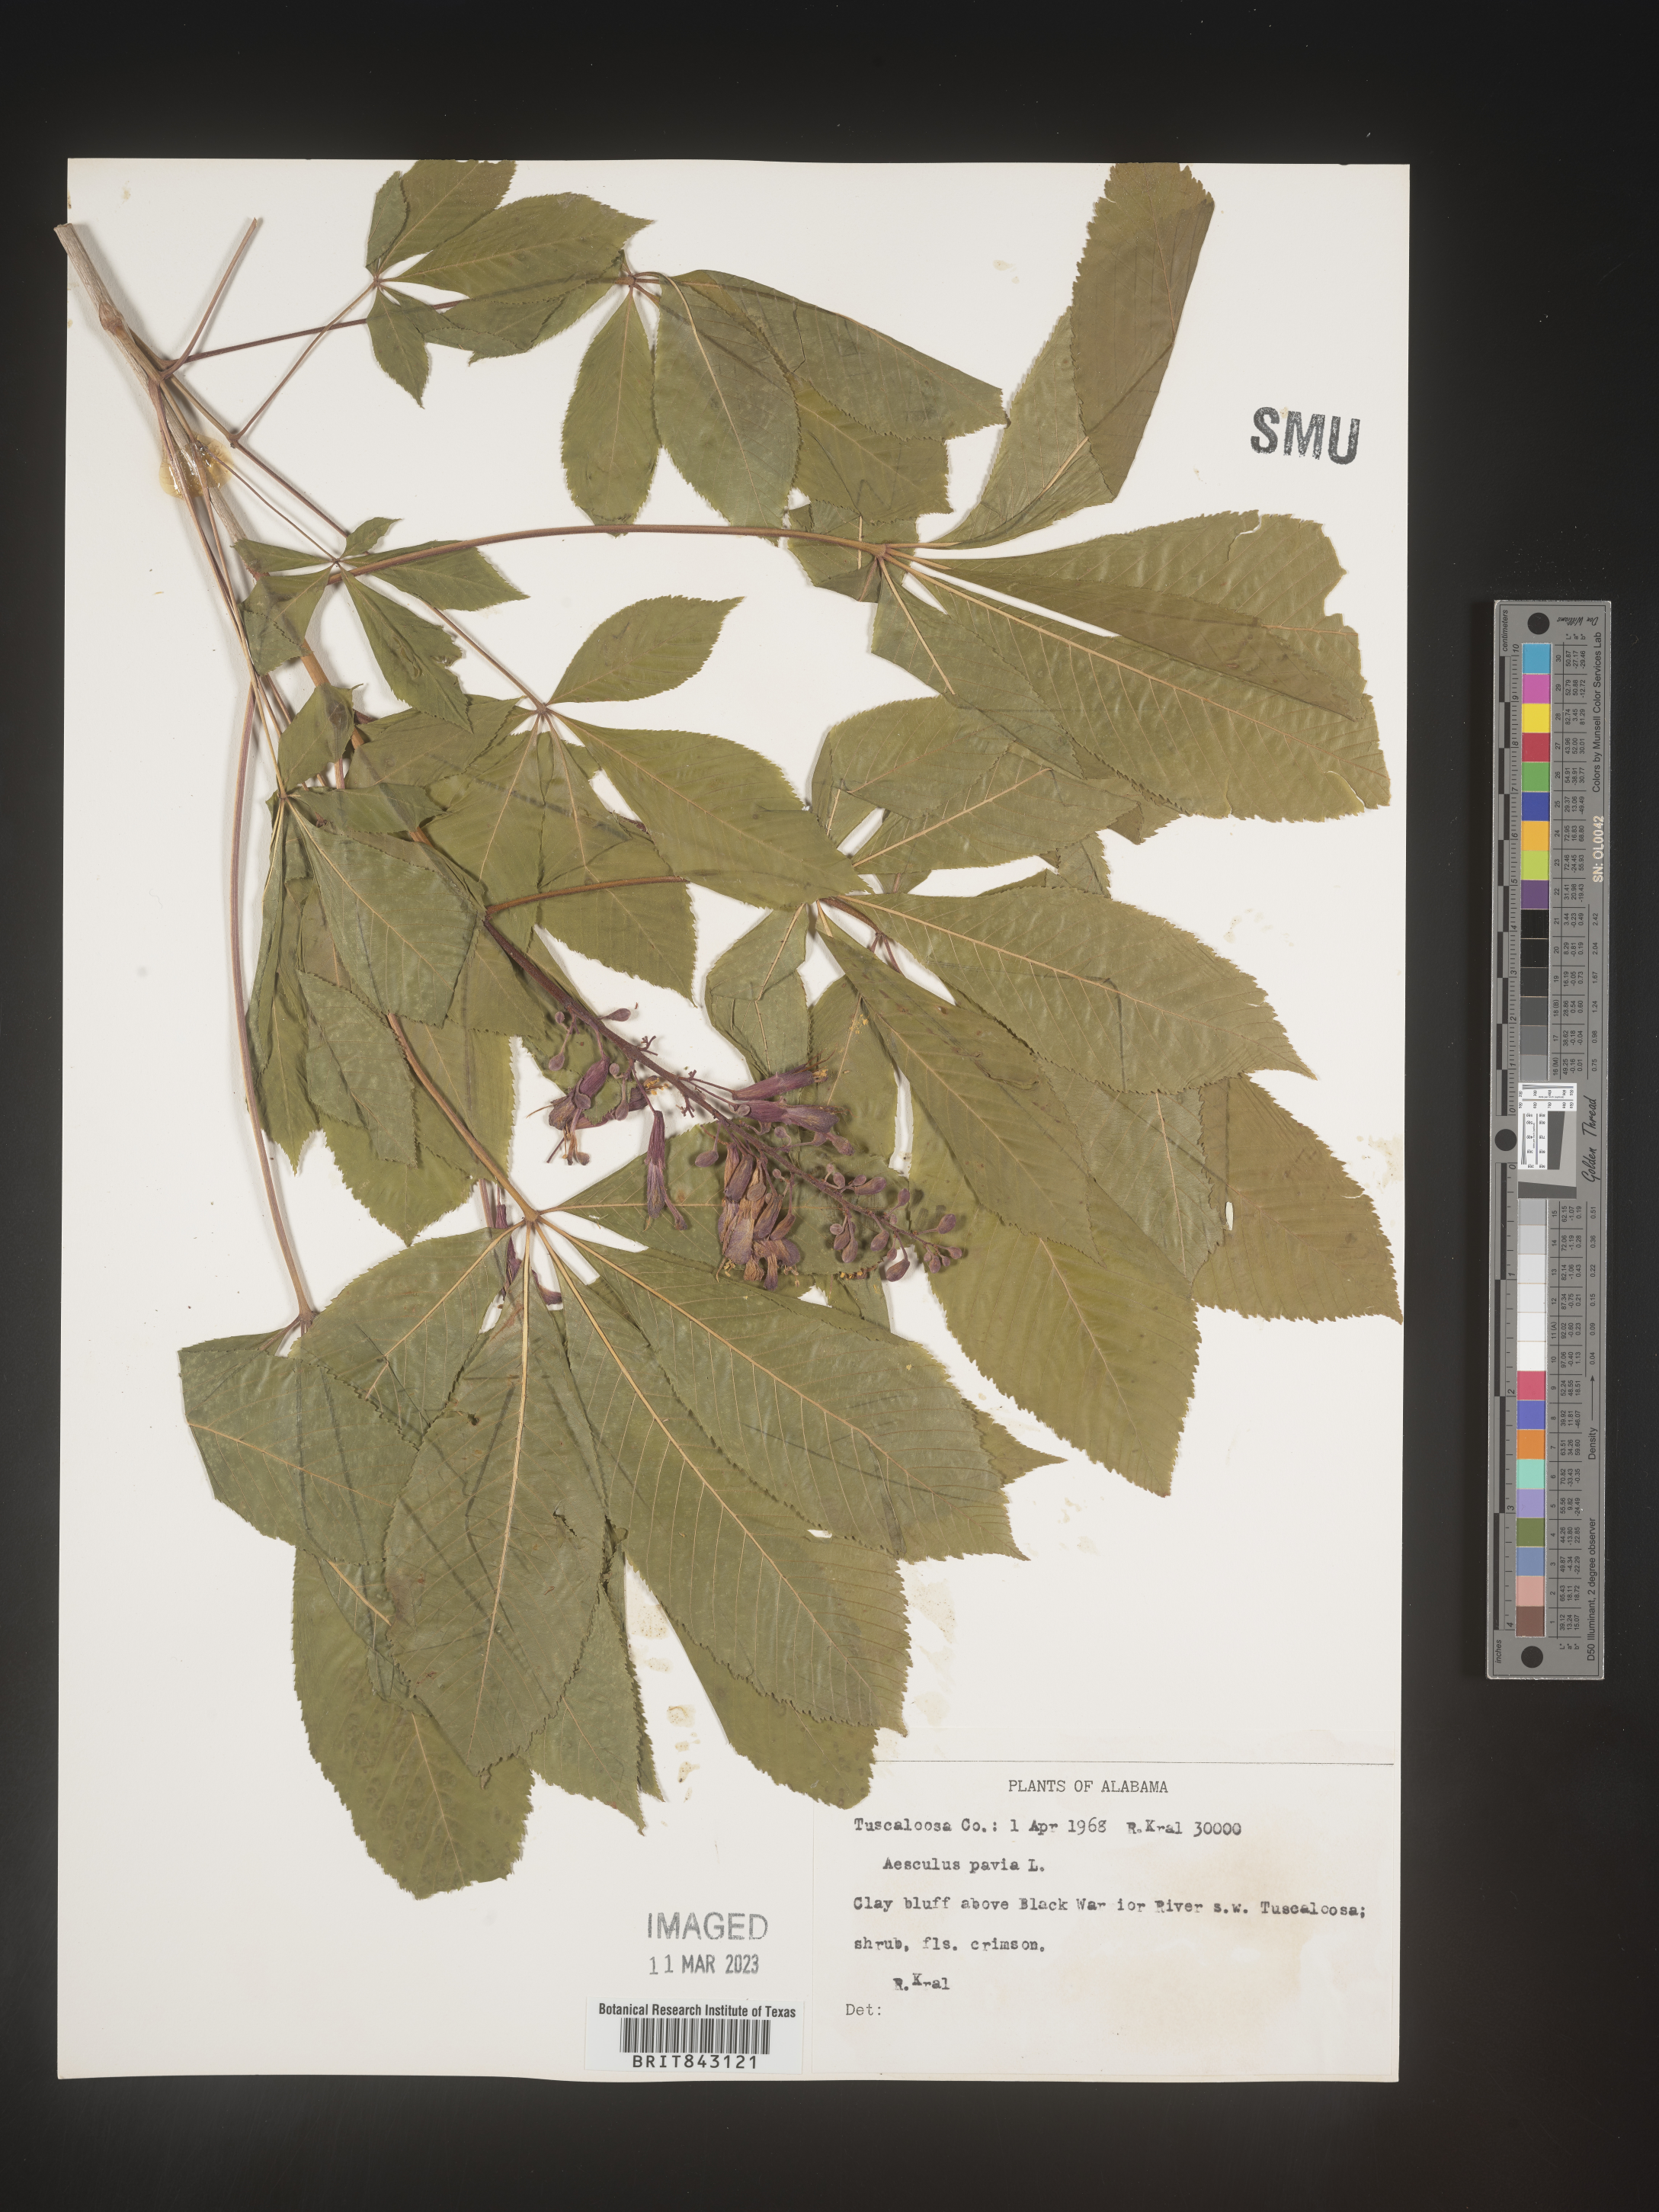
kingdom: Plantae
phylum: Tracheophyta
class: Magnoliopsida
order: Sapindales
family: Sapindaceae
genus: Aesculus
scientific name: Aesculus pavia
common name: Red buckeye
